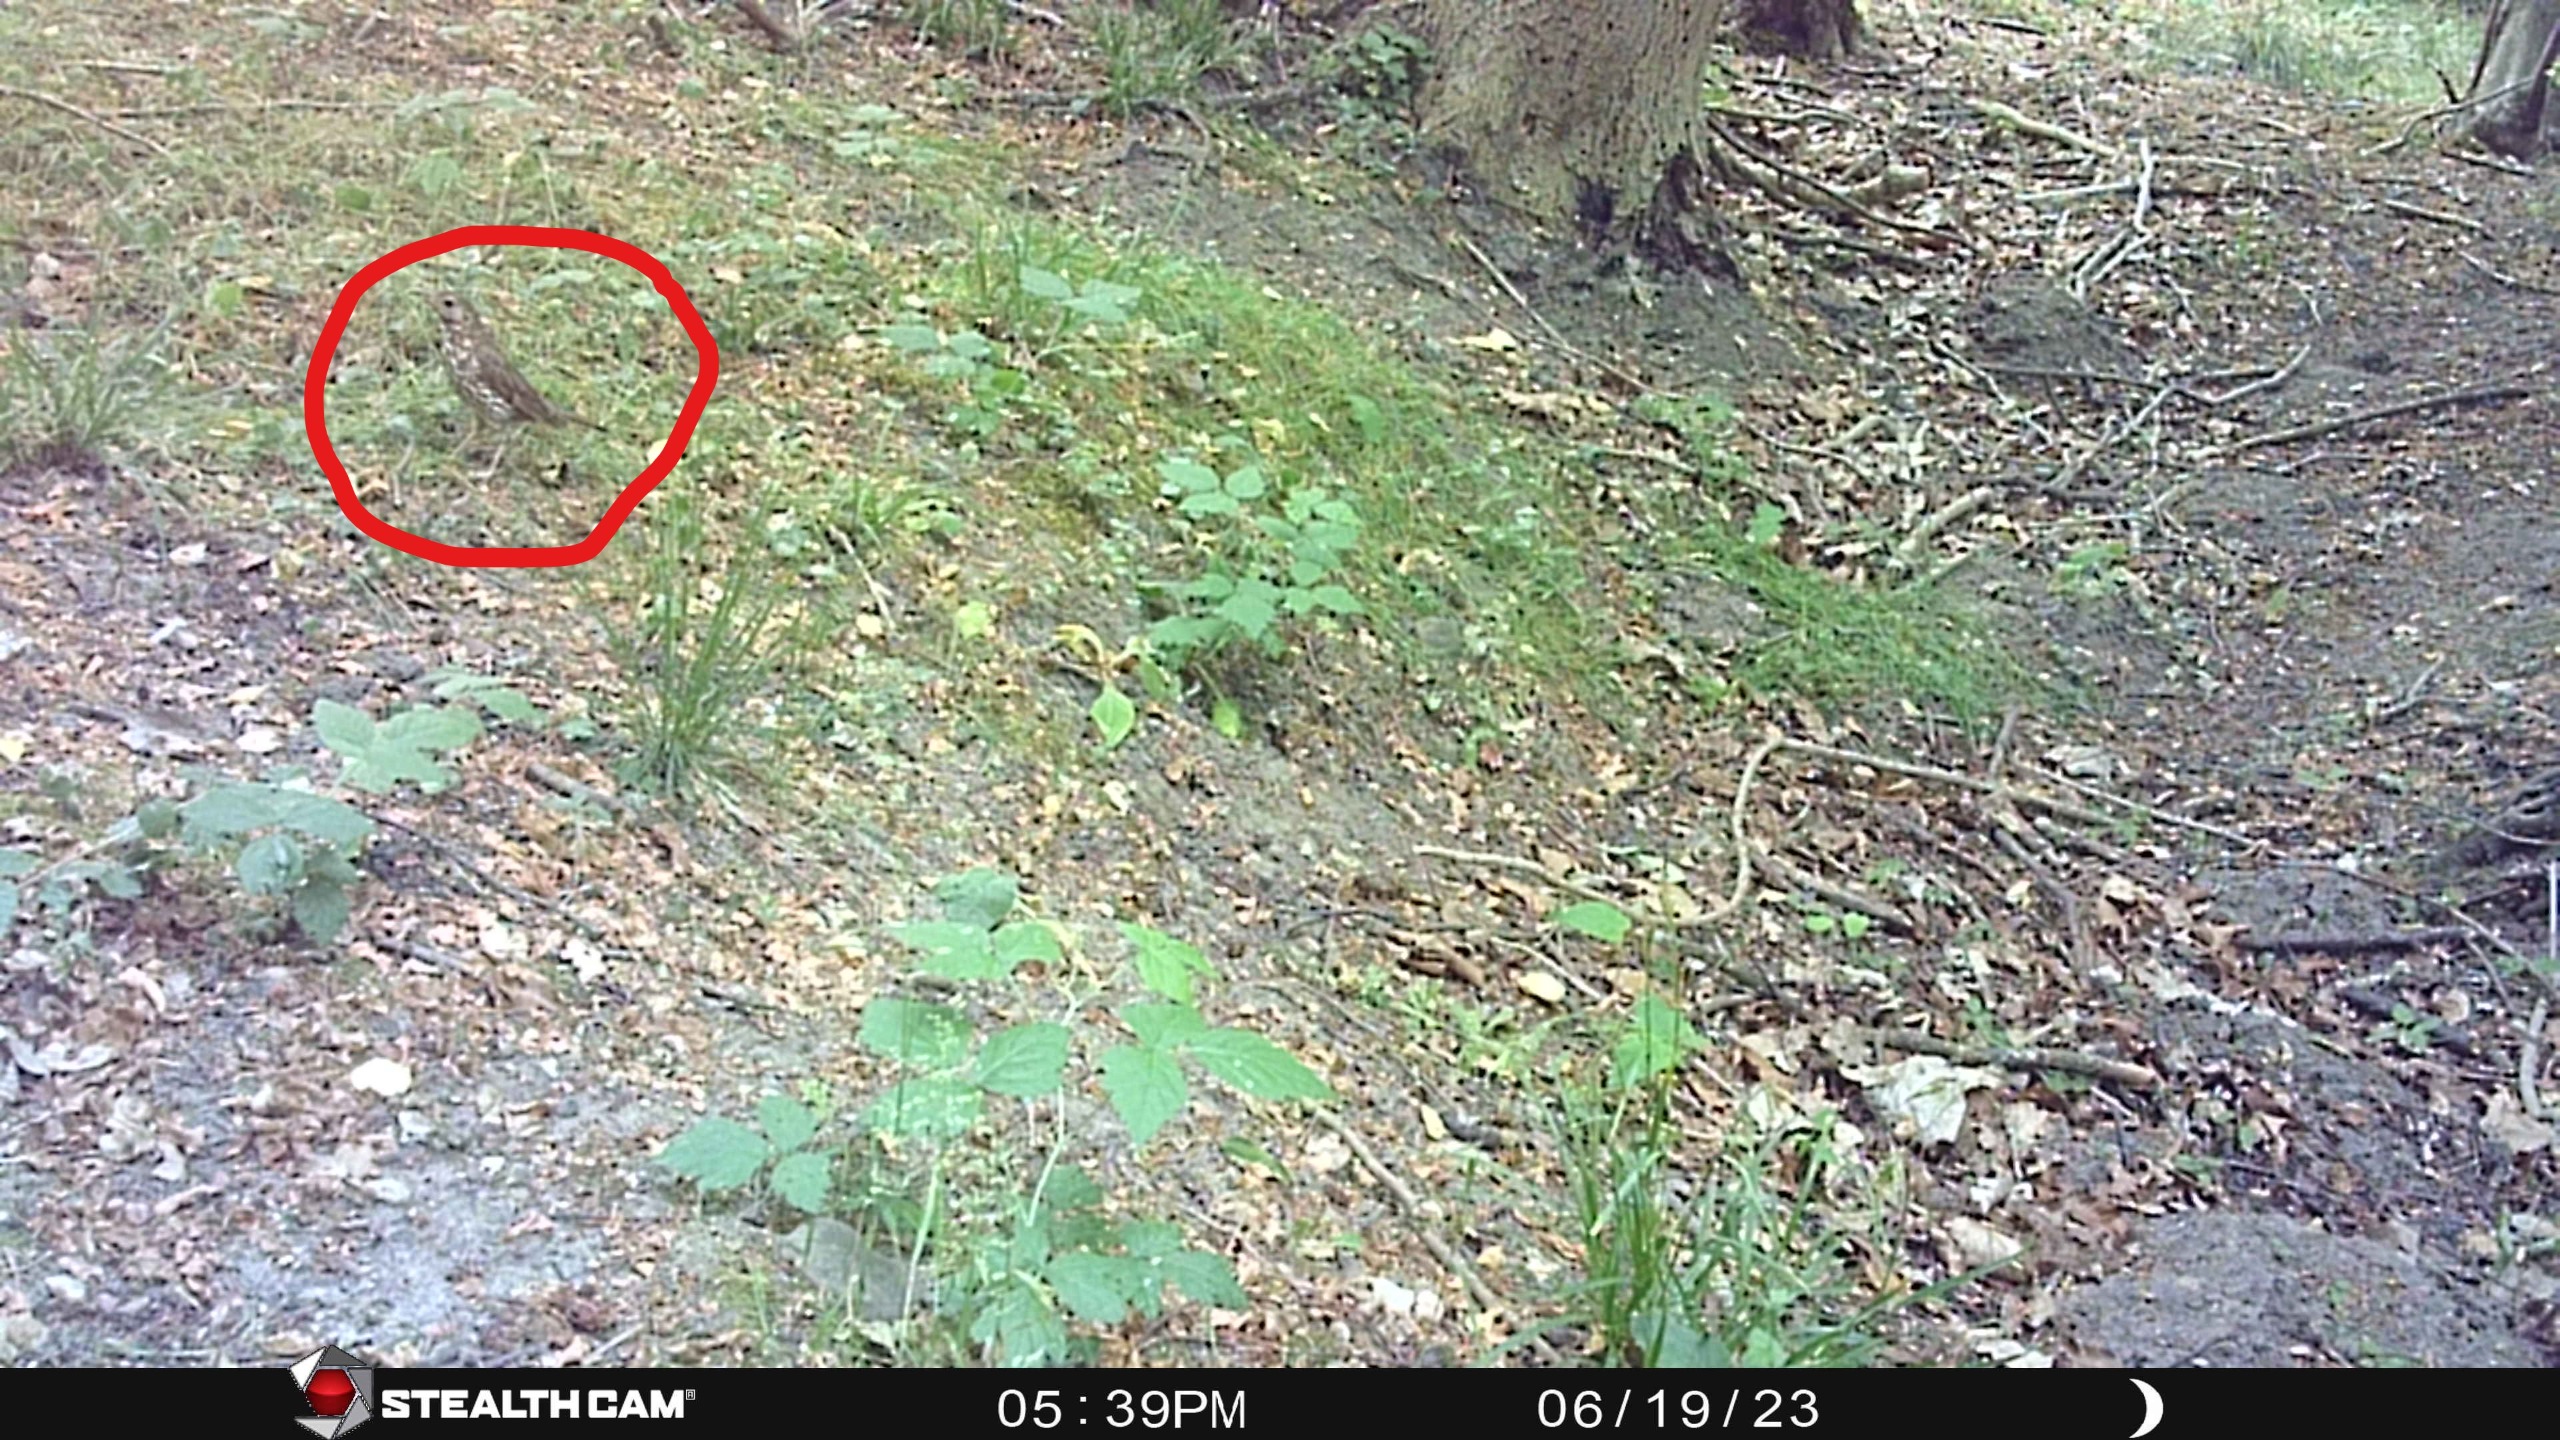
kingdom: Animalia
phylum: Chordata
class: Aves
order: Passeriformes
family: Turdidae
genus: Turdus
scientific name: Turdus philomelos
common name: Sangdrossel
